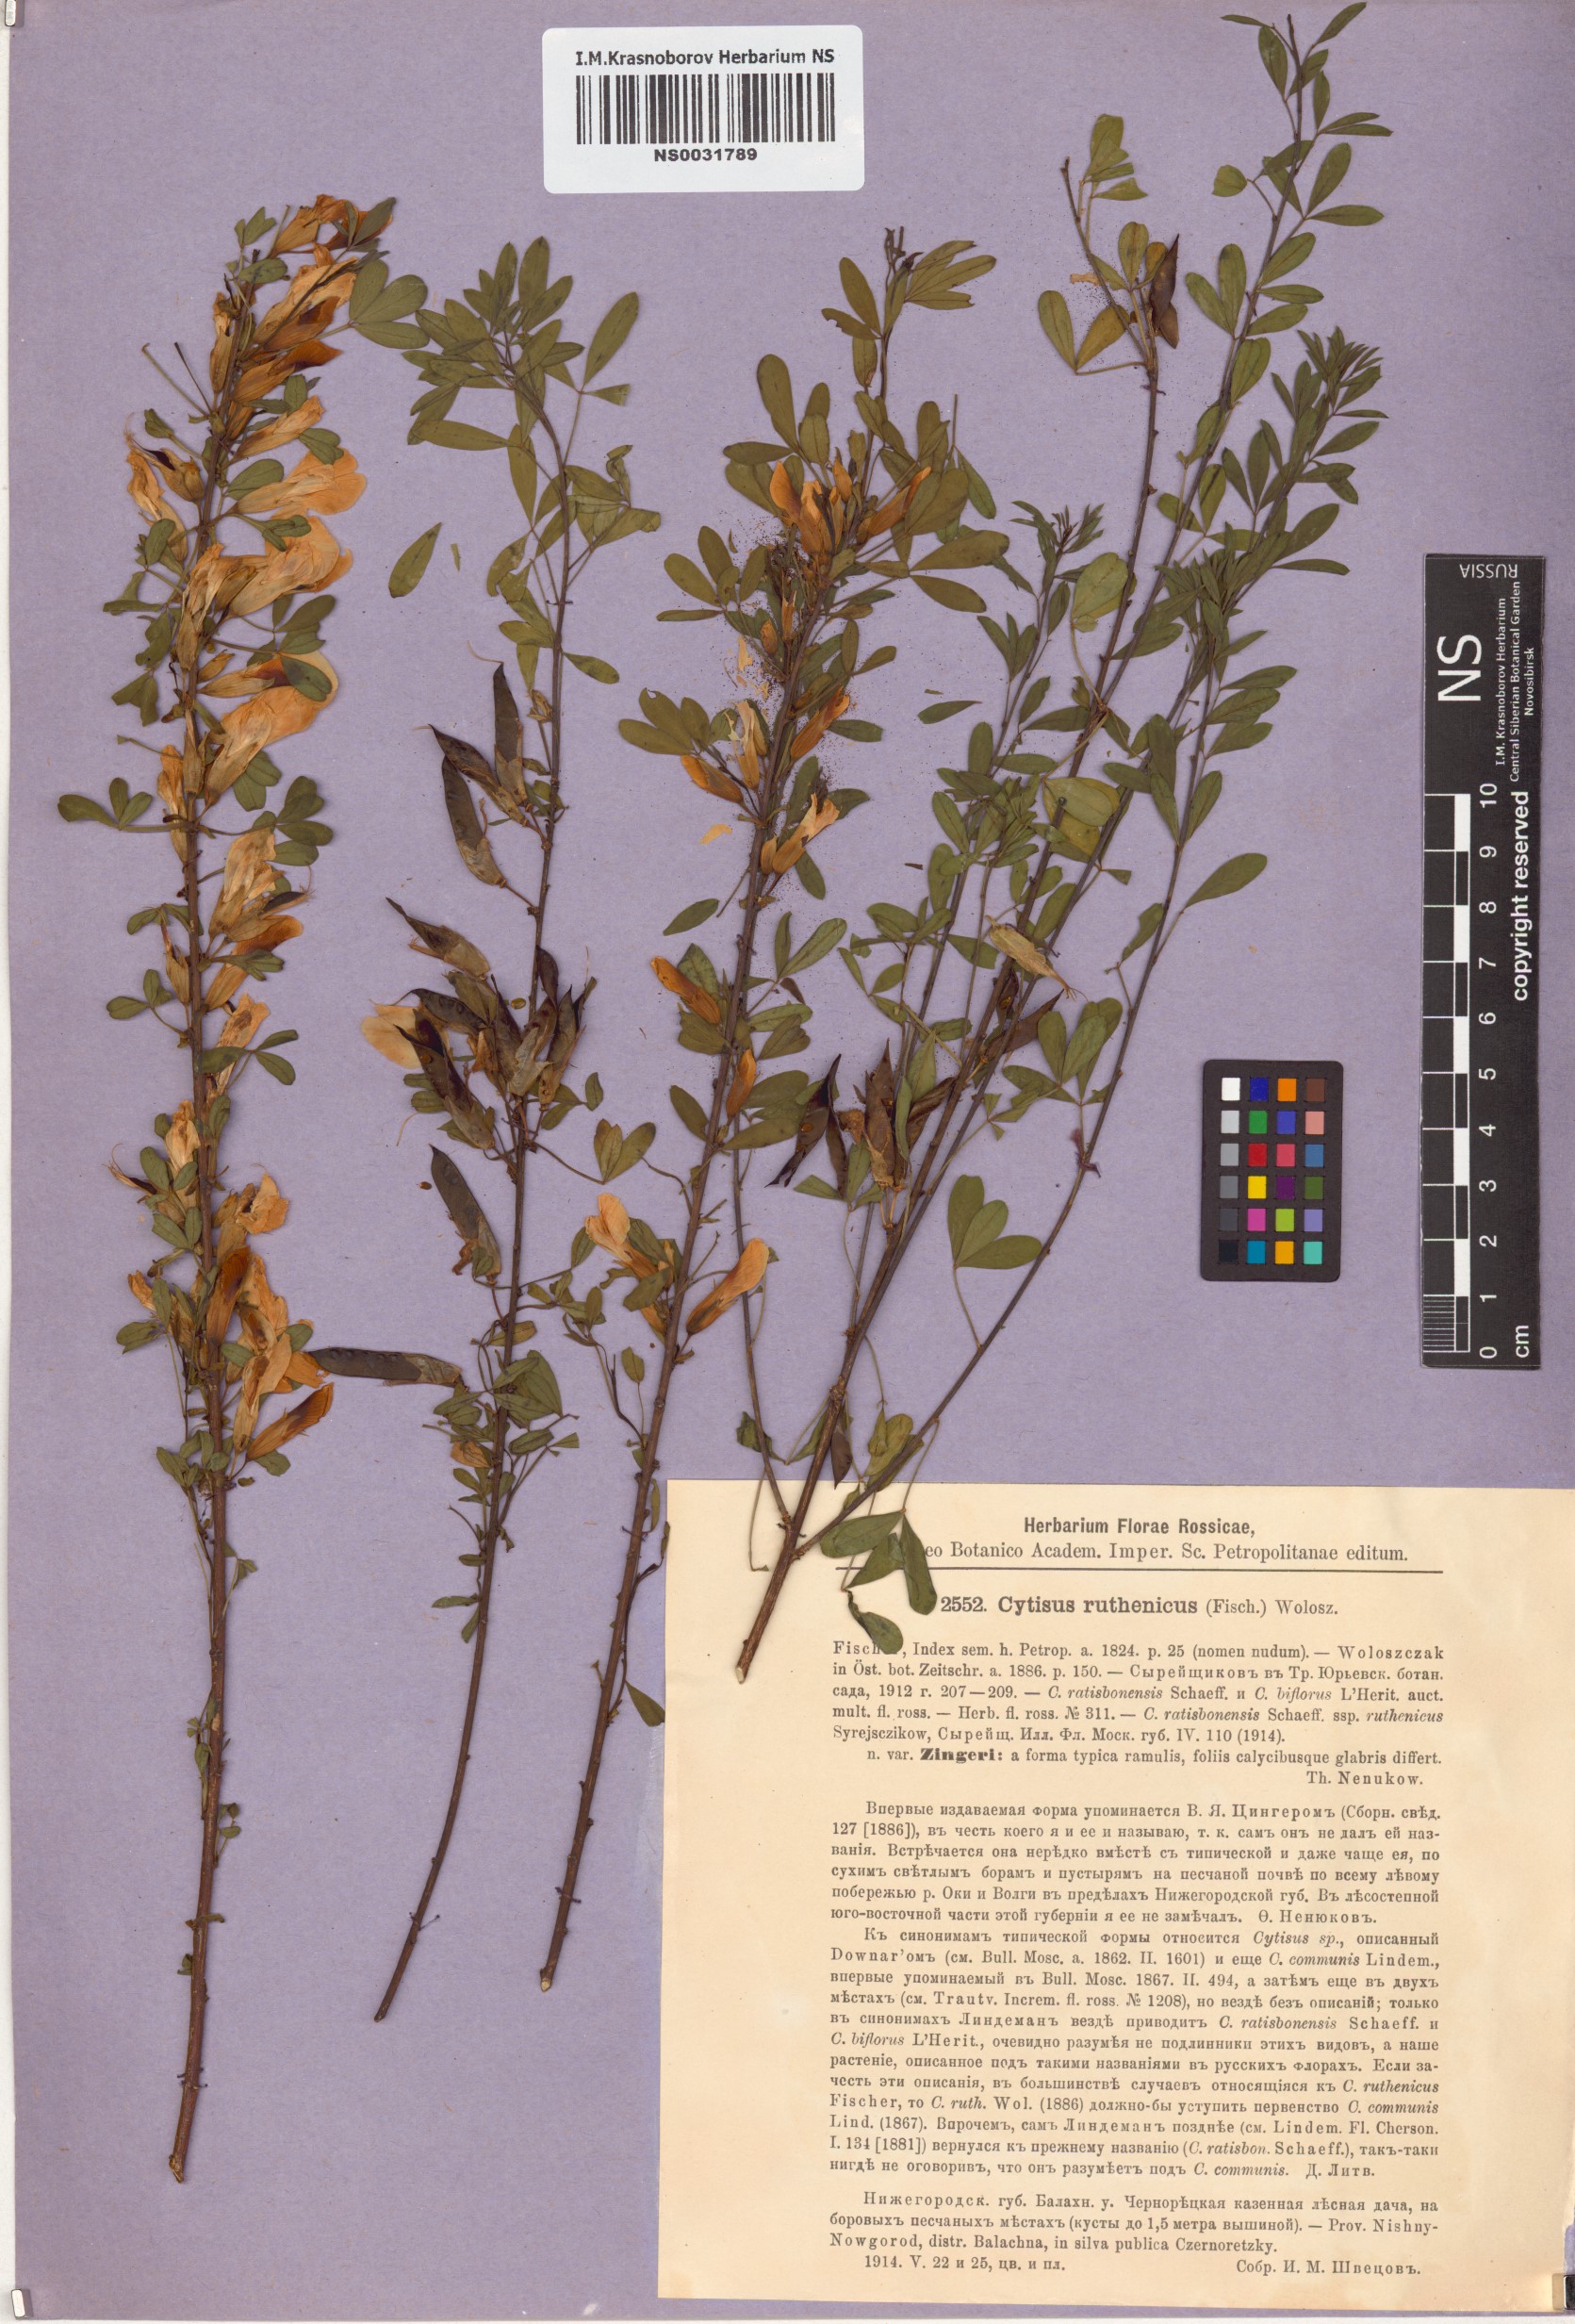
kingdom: Plantae
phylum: Tracheophyta
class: Magnoliopsida
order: Fabales
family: Fabaceae
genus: Chamaecytisus
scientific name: Chamaecytisus zingeri
